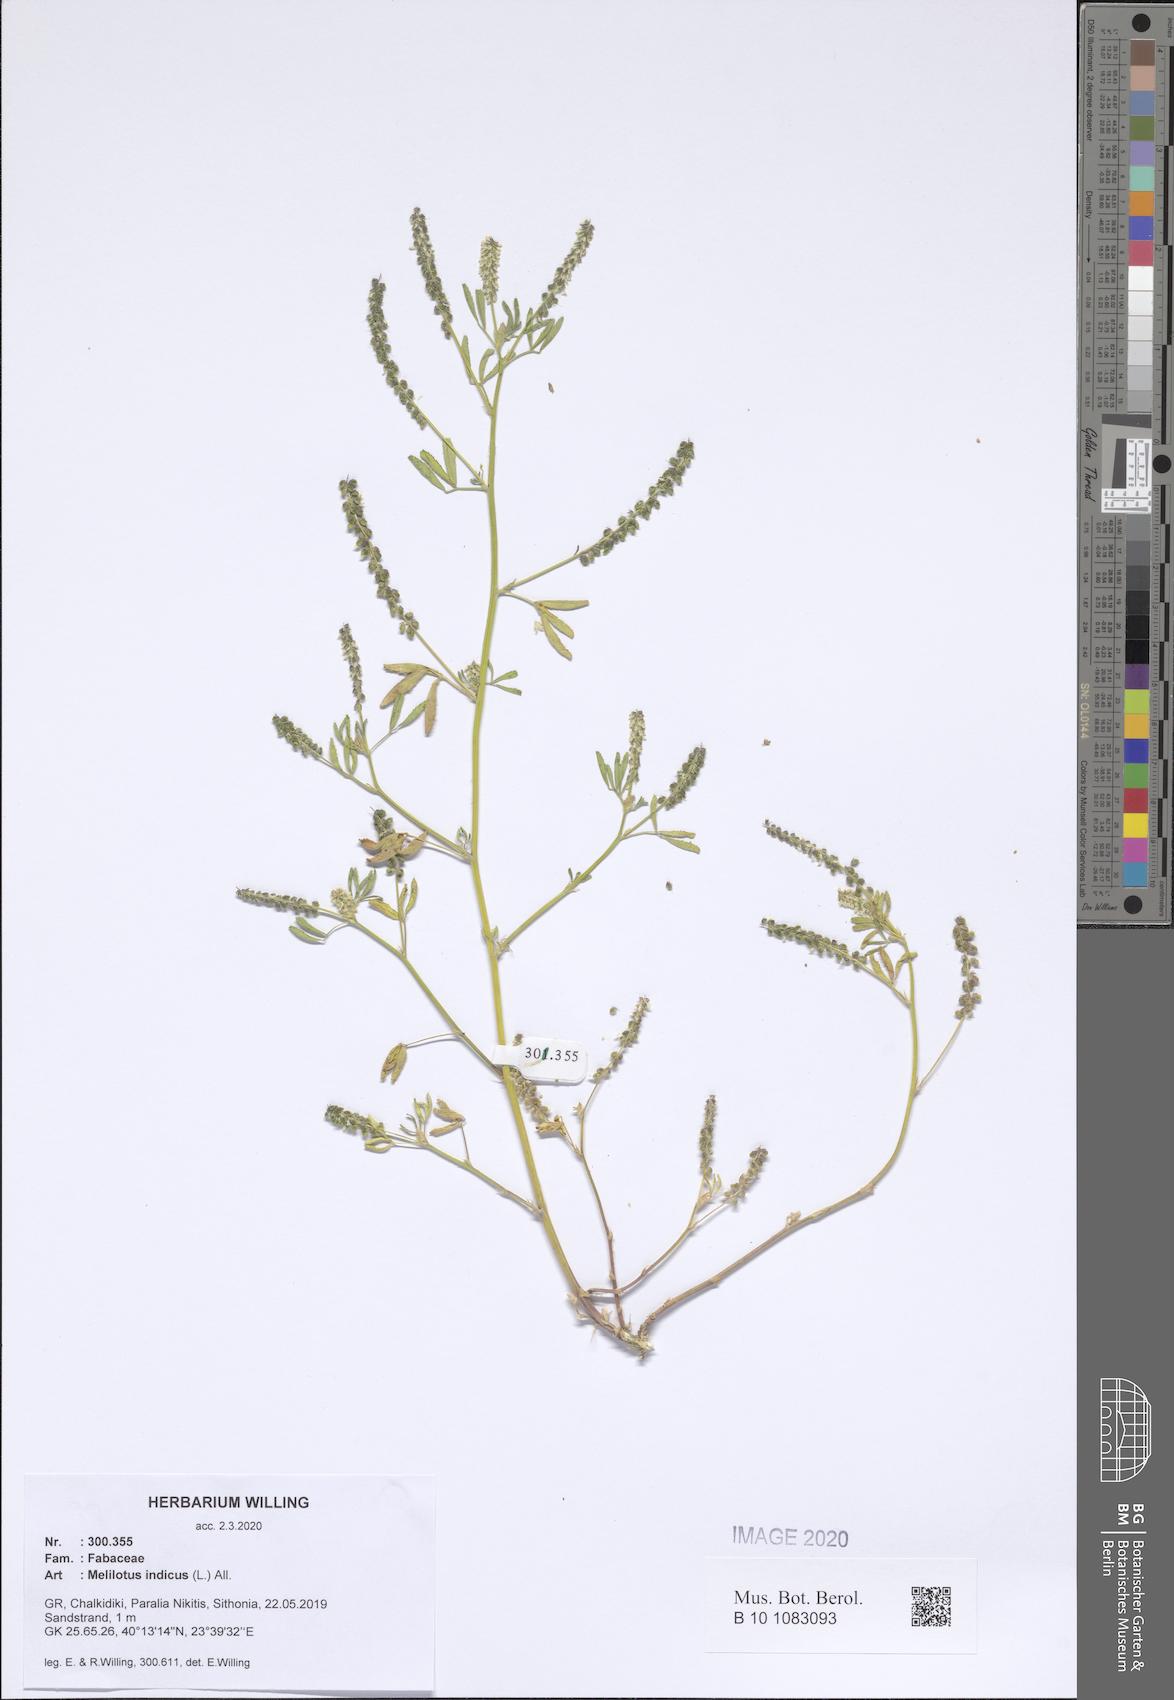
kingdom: Plantae
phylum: Tracheophyta
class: Magnoliopsida
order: Fabales
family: Fabaceae
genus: Melilotus
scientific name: Melilotus indicus
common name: Small melilot
